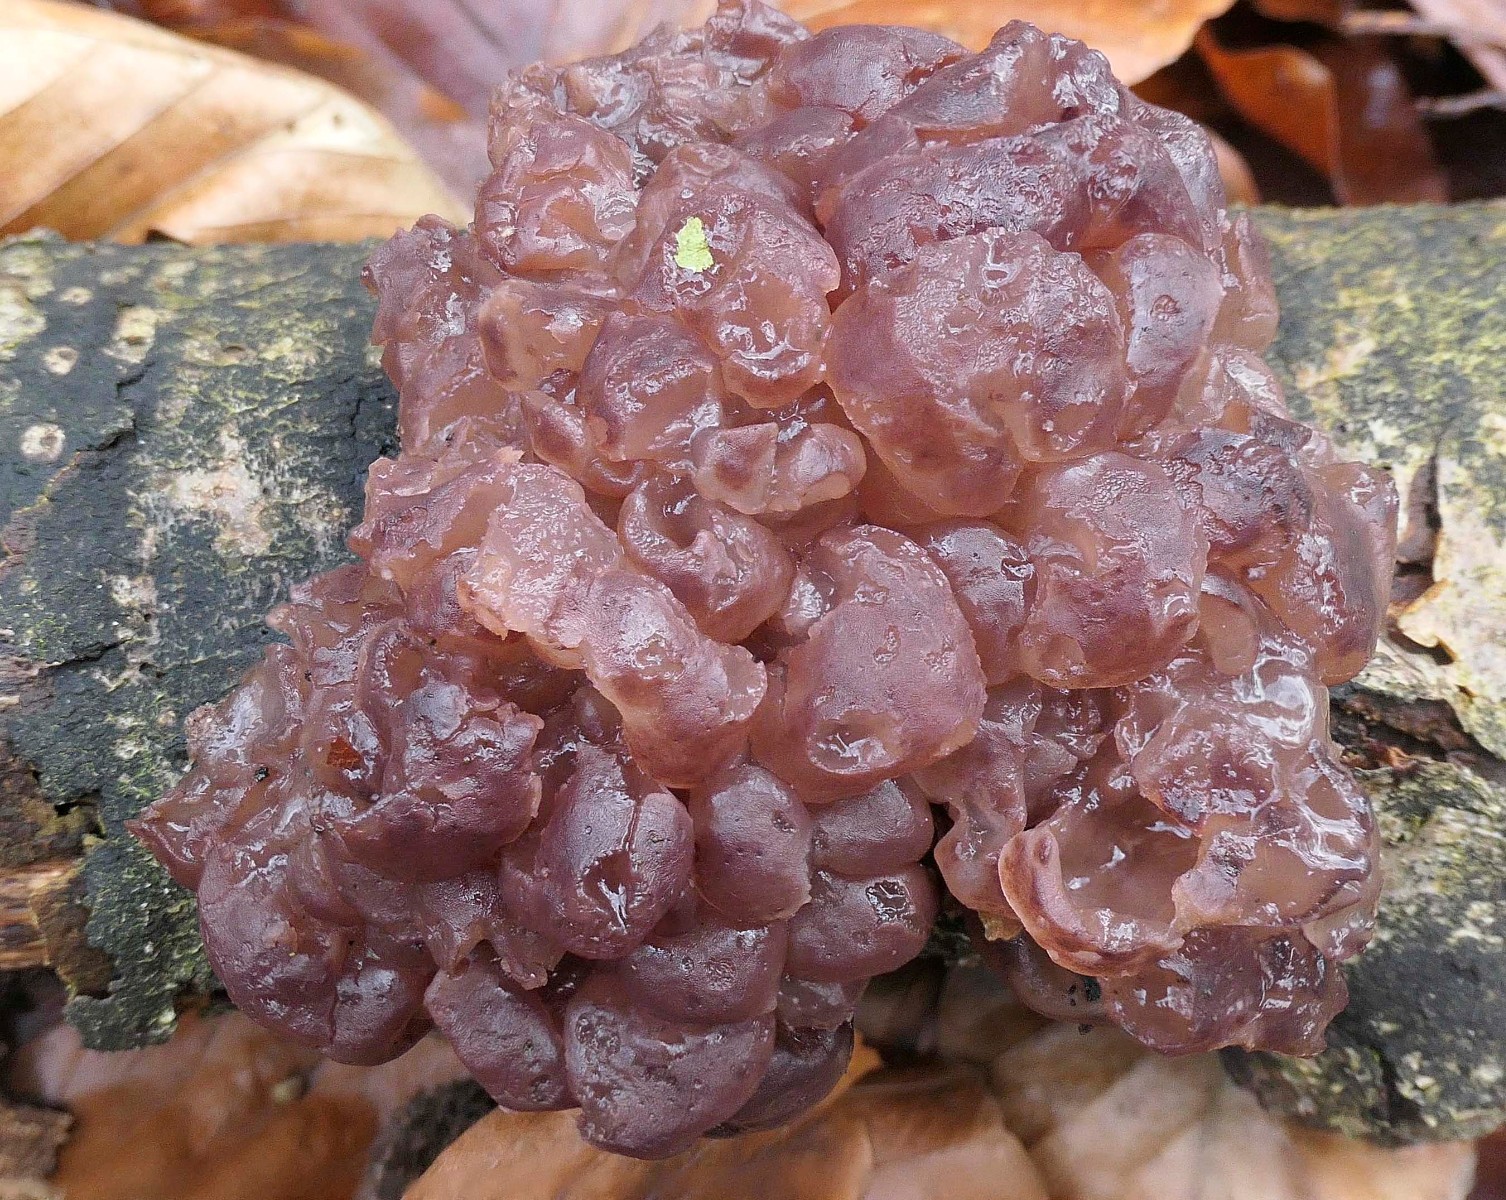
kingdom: Fungi
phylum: Ascomycota
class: Leotiomycetes
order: Helotiales
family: Gelatinodiscaceae
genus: Ascotremella
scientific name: Ascotremella faginea
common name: hjerne-bævreskive
